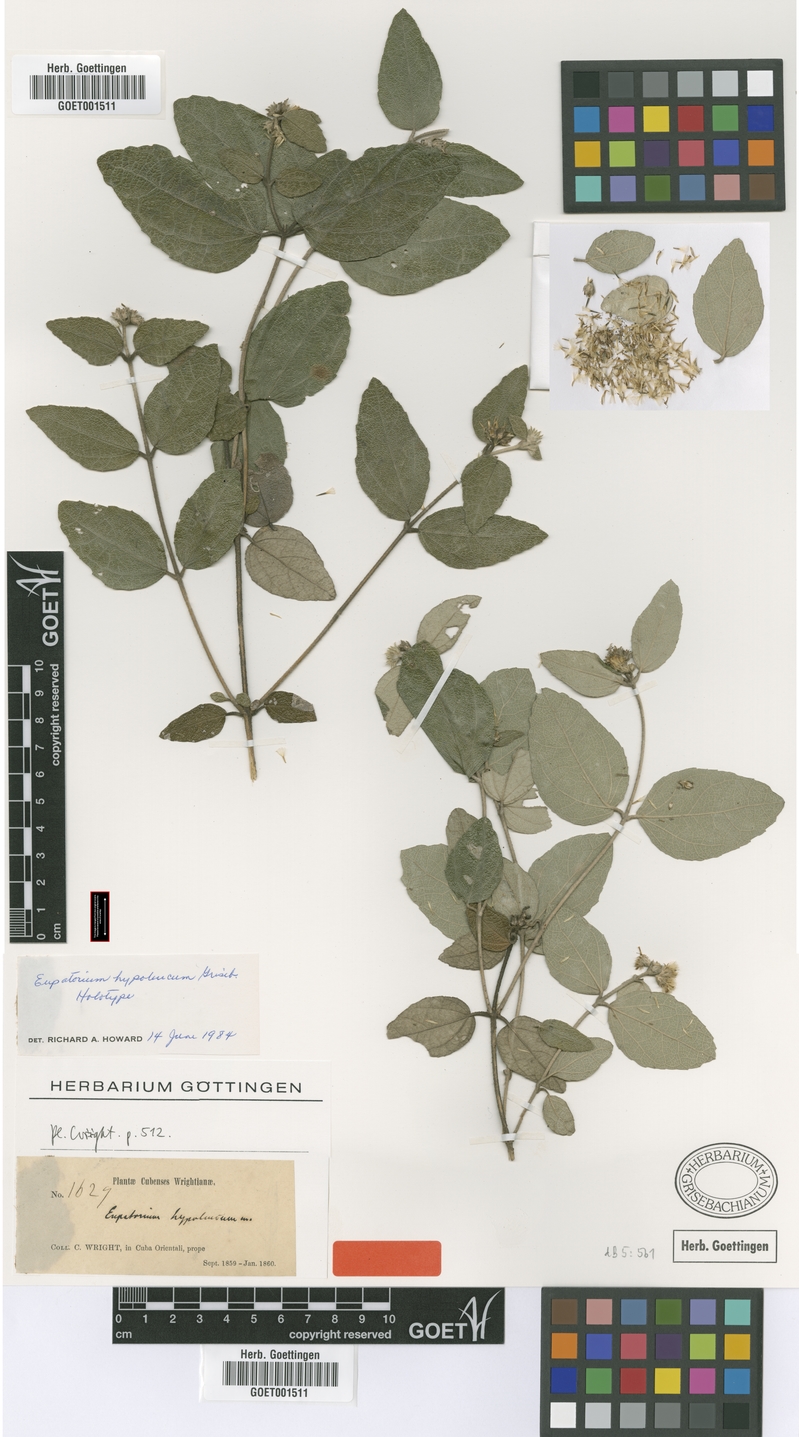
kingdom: Plantae
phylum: Tracheophyta
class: Magnoliopsida
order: Asterales
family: Asteraceae
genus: Grisebachianthus
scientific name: Grisebachianthus hypoleucus
